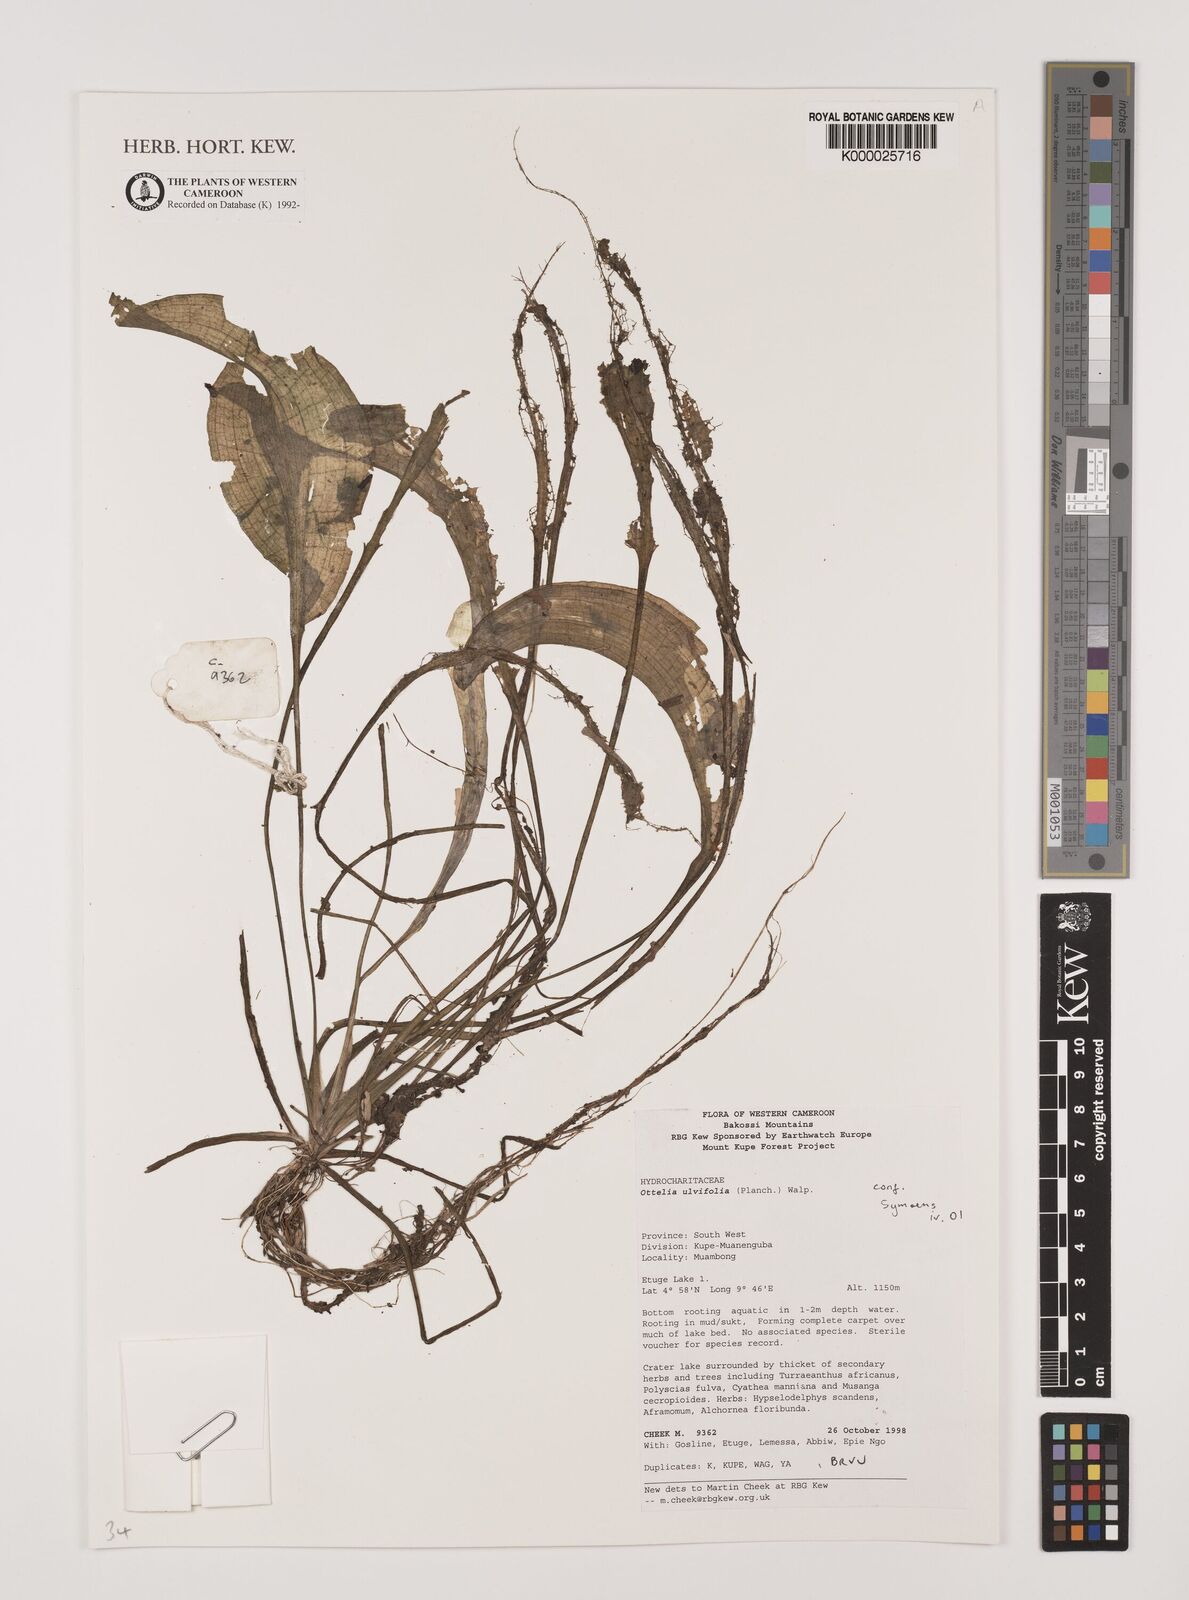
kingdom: Plantae
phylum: Tracheophyta
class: Liliopsida
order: Alismatales
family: Hydrocharitaceae
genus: Ottelia
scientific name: Ottelia ulvifolia
